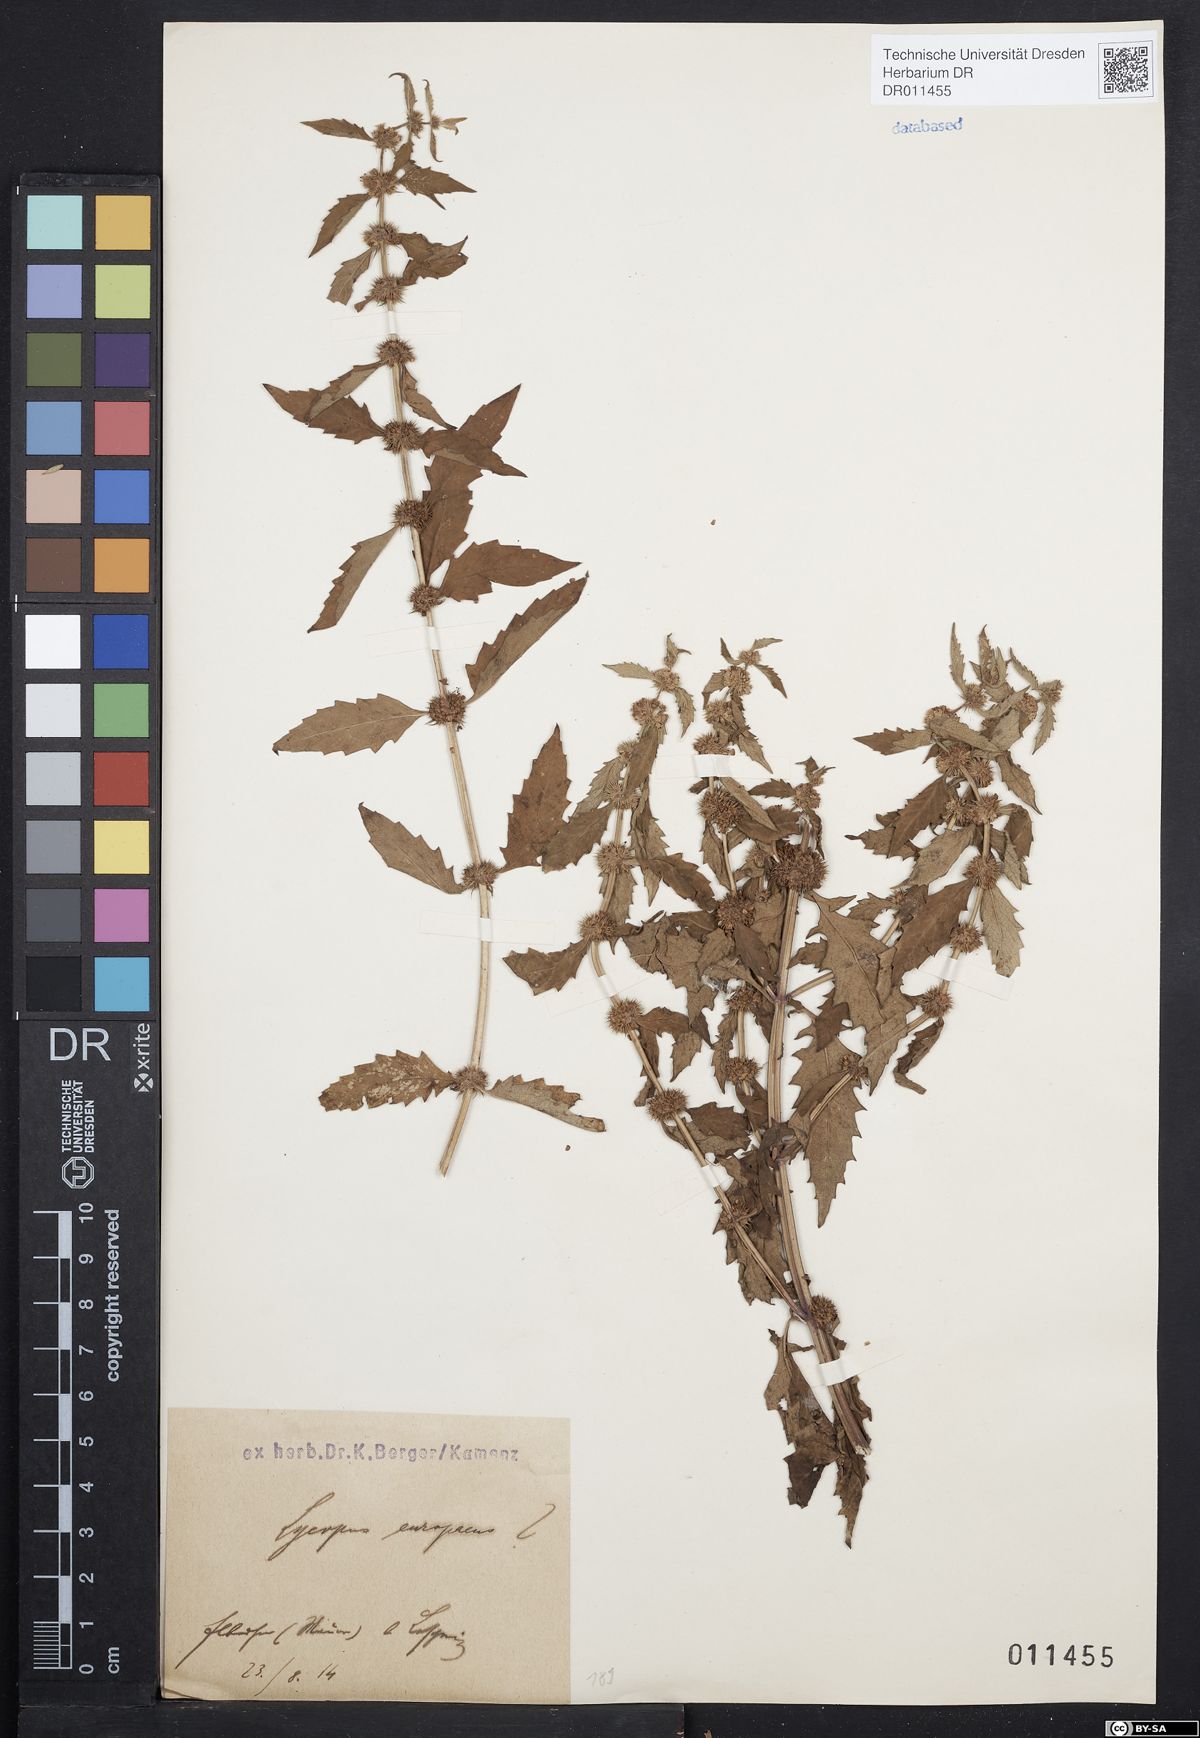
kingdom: Plantae
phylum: Tracheophyta
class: Magnoliopsida
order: Lamiales
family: Lamiaceae
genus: Lycopus
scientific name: Lycopus europaeus
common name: European bugleweed
